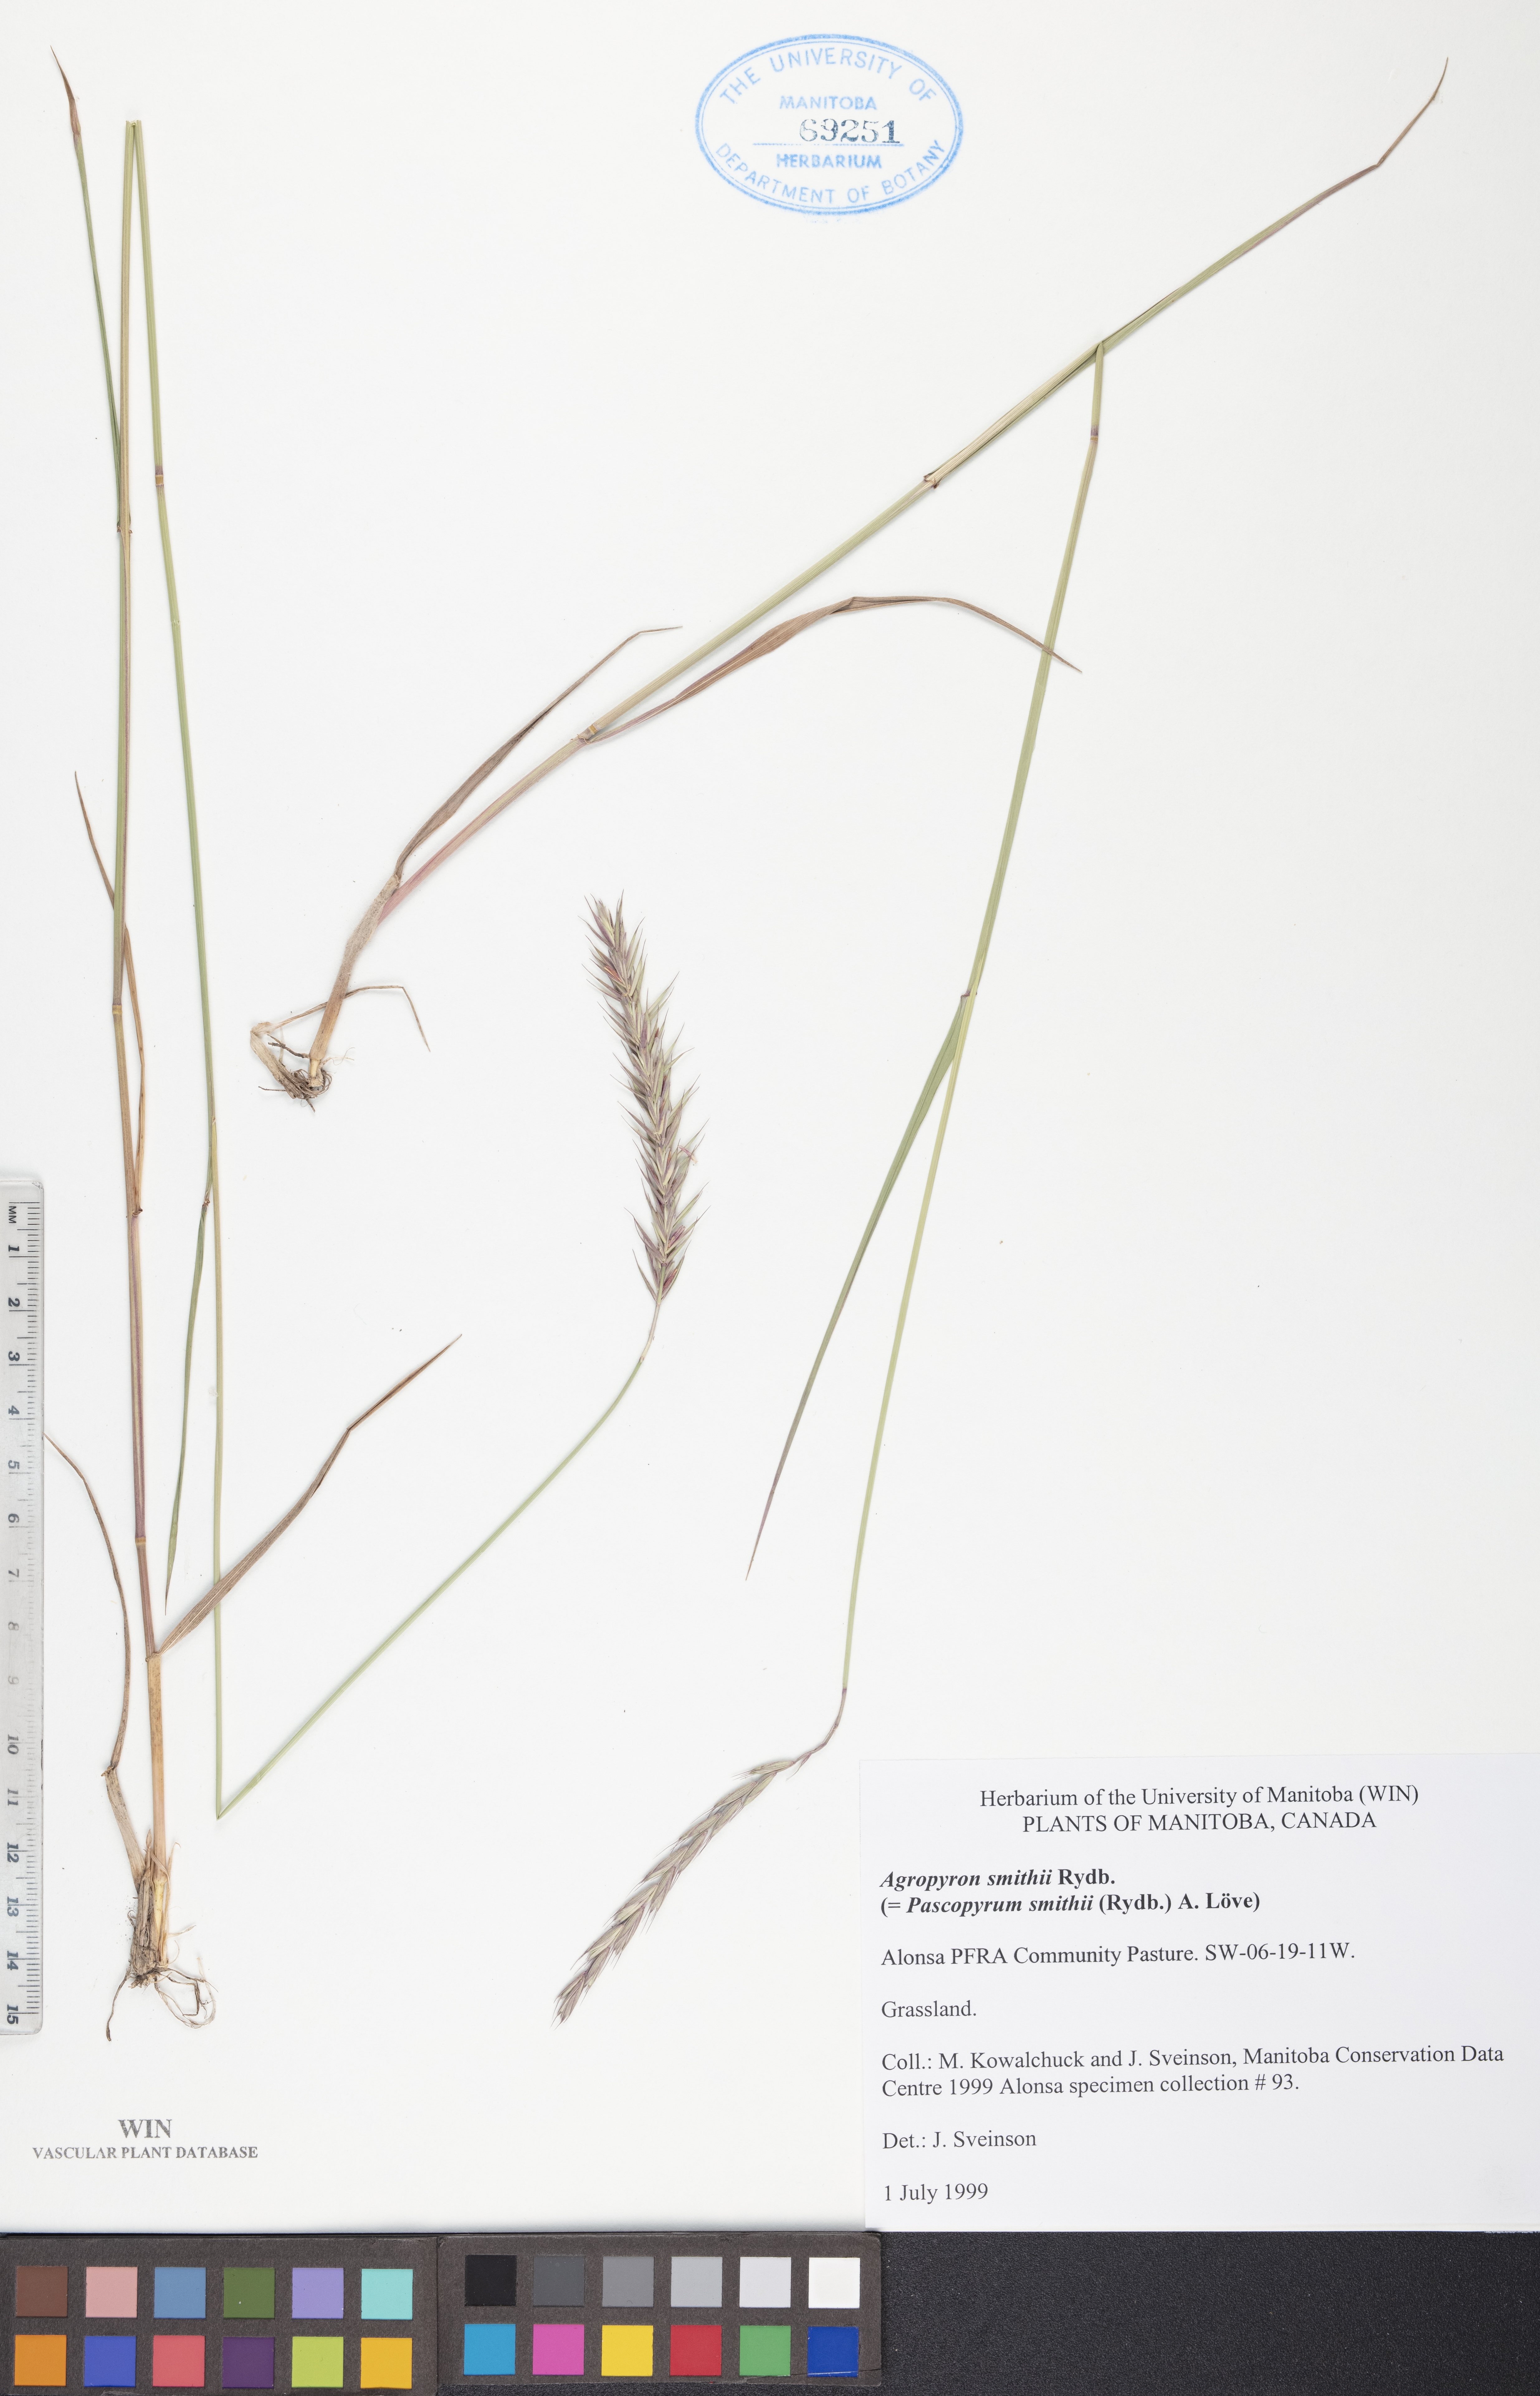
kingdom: Plantae
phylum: Tracheophyta
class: Liliopsida
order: Poales
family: Poaceae
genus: Elymus
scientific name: Elymus smithii
